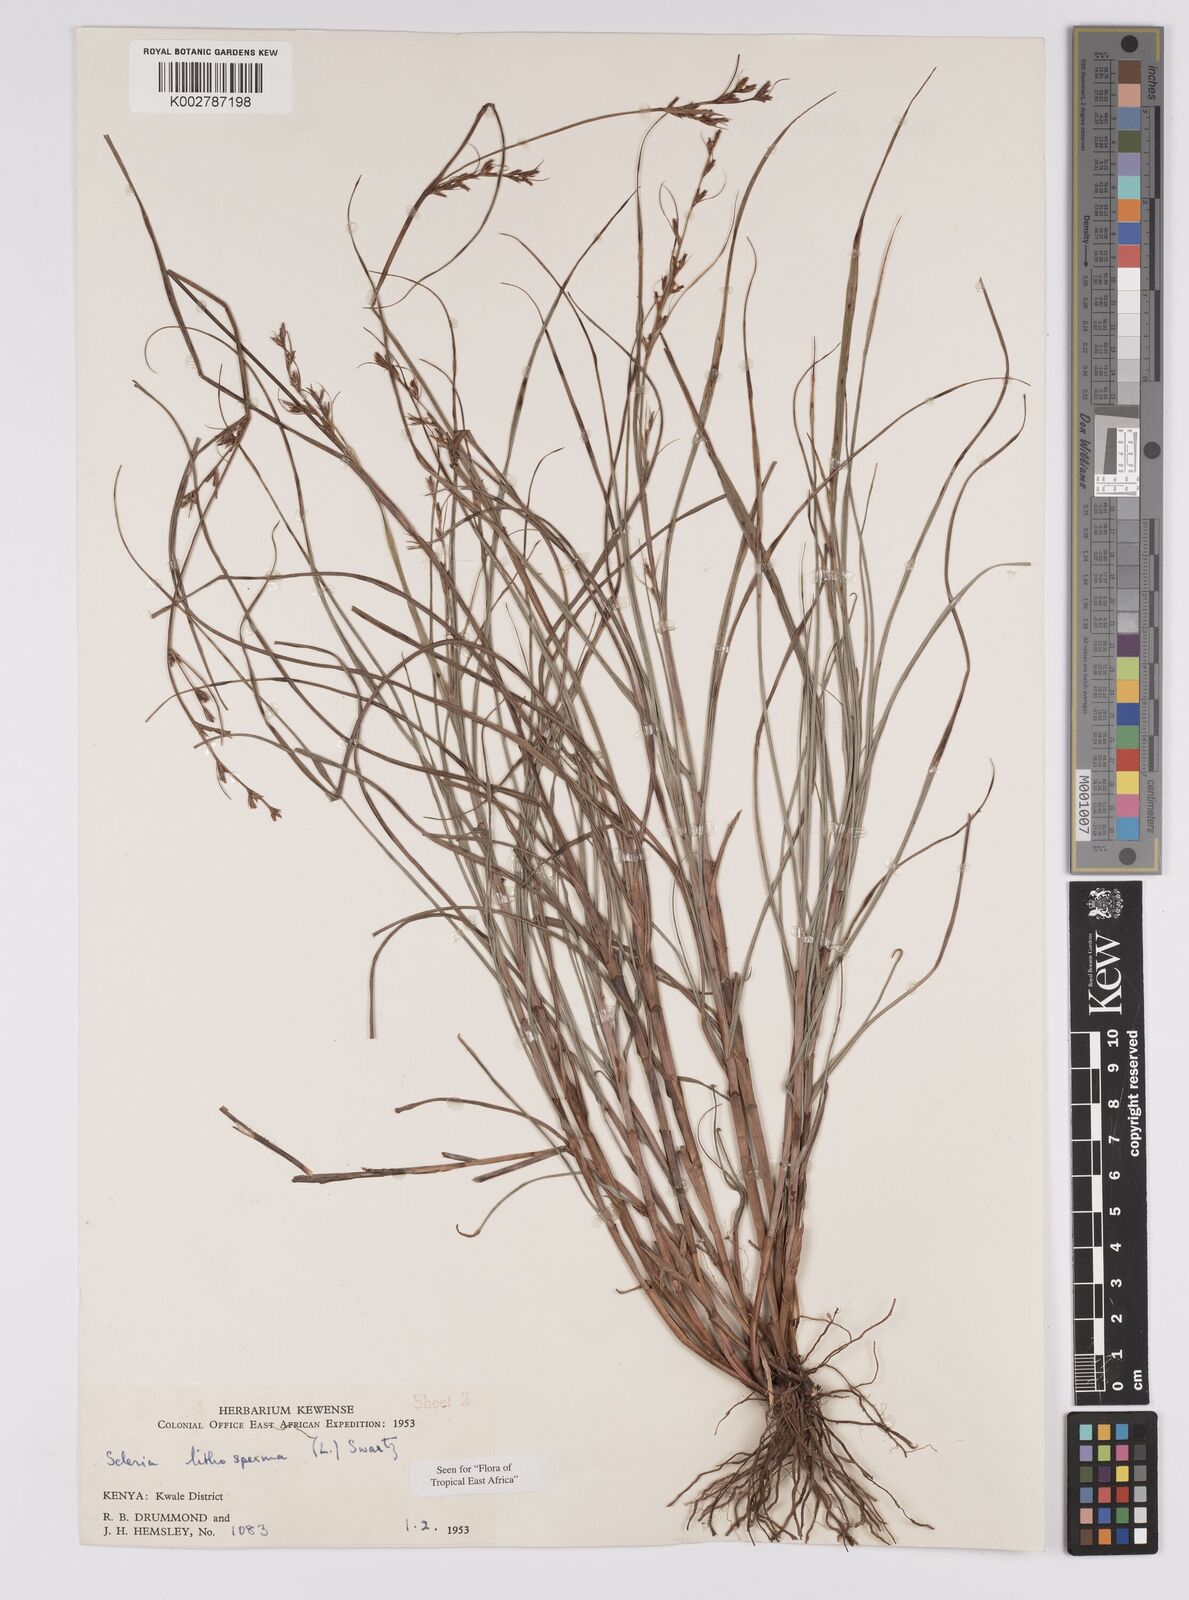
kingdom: Plantae
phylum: Tracheophyta
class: Liliopsida
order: Poales
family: Cyperaceae
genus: Scleria
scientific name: Scleria lithosperma
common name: Florida keys nut-rush
